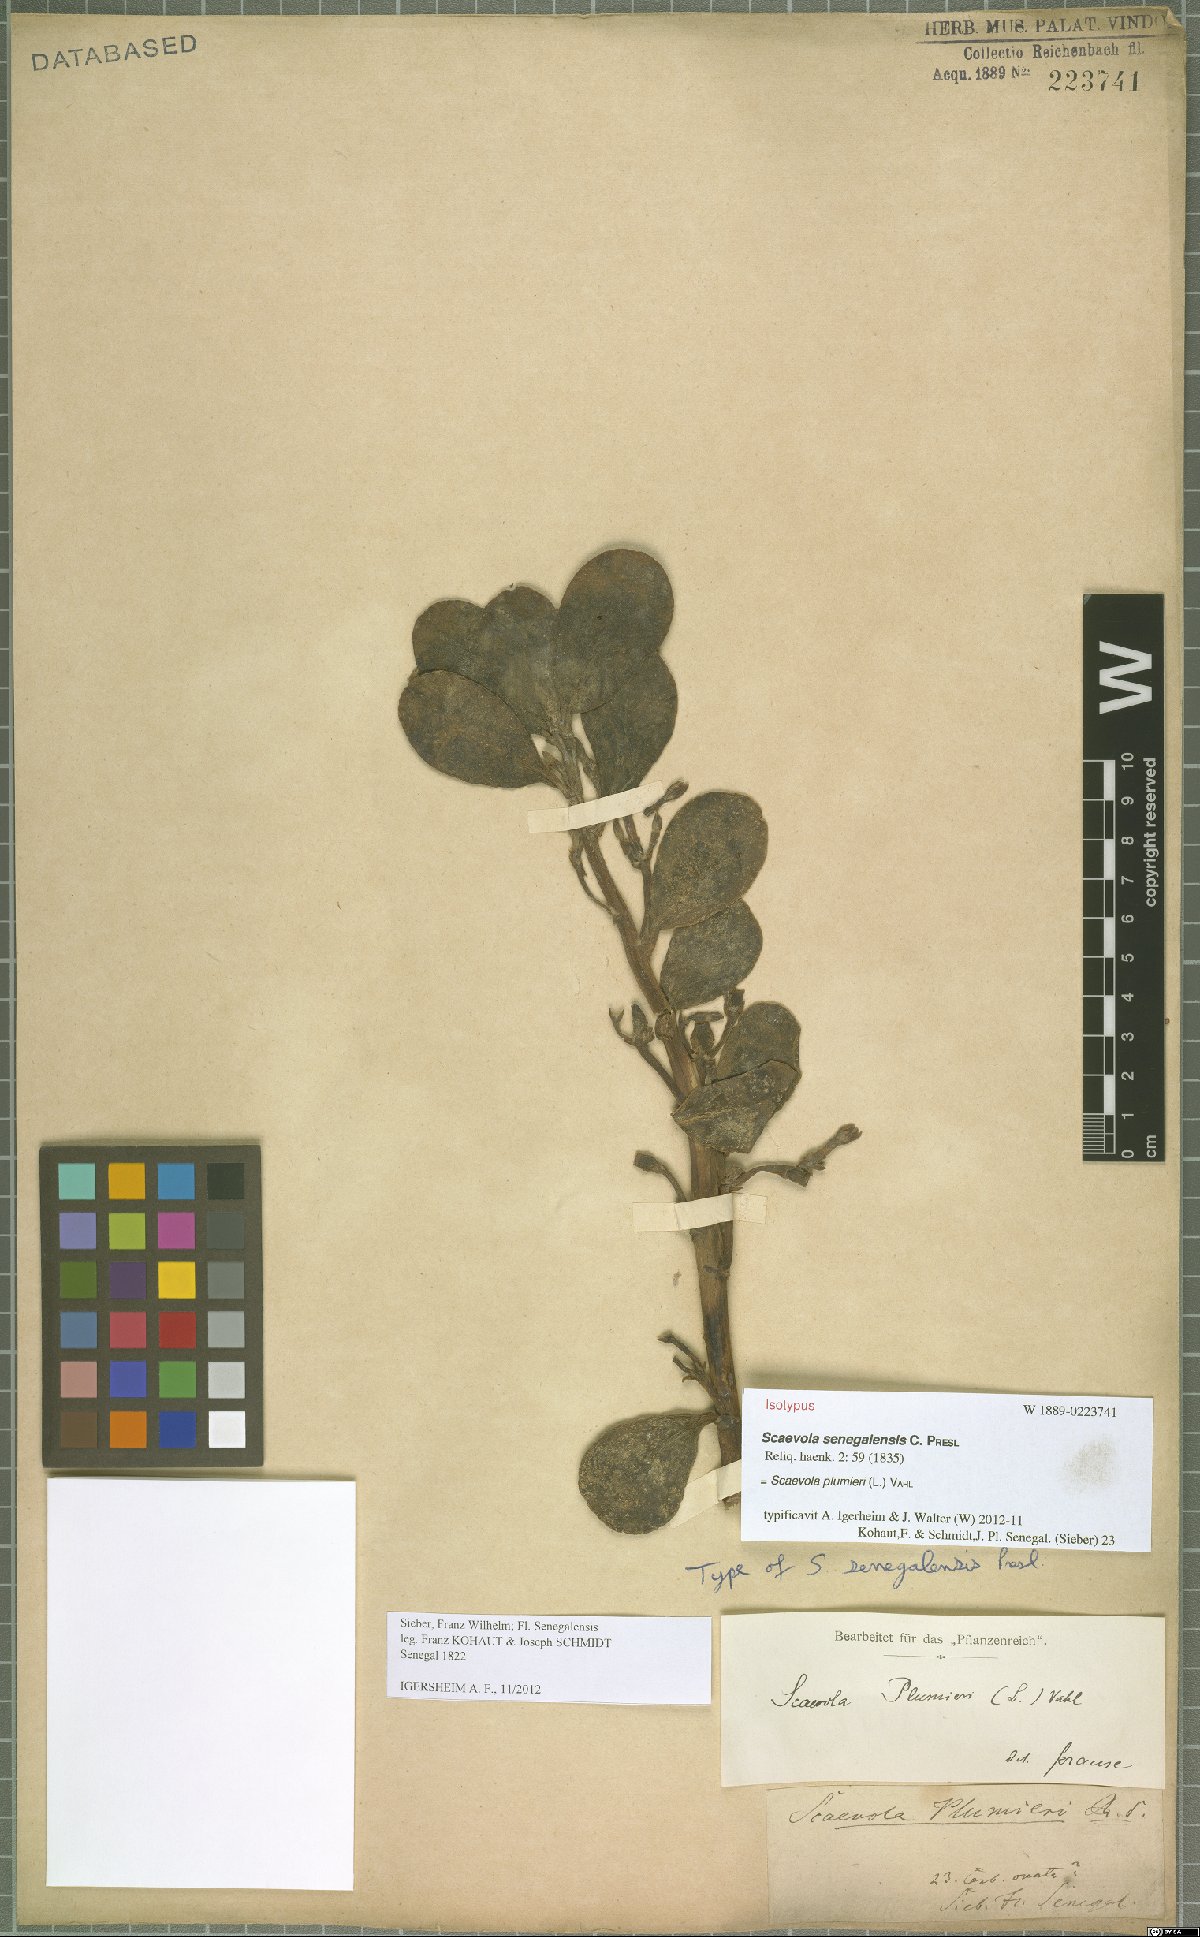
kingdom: Plantae
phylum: Tracheophyta
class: Magnoliopsida
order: Asterales
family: Goodeniaceae
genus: Scaevola
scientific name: Scaevola plumieri
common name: Gull feed
